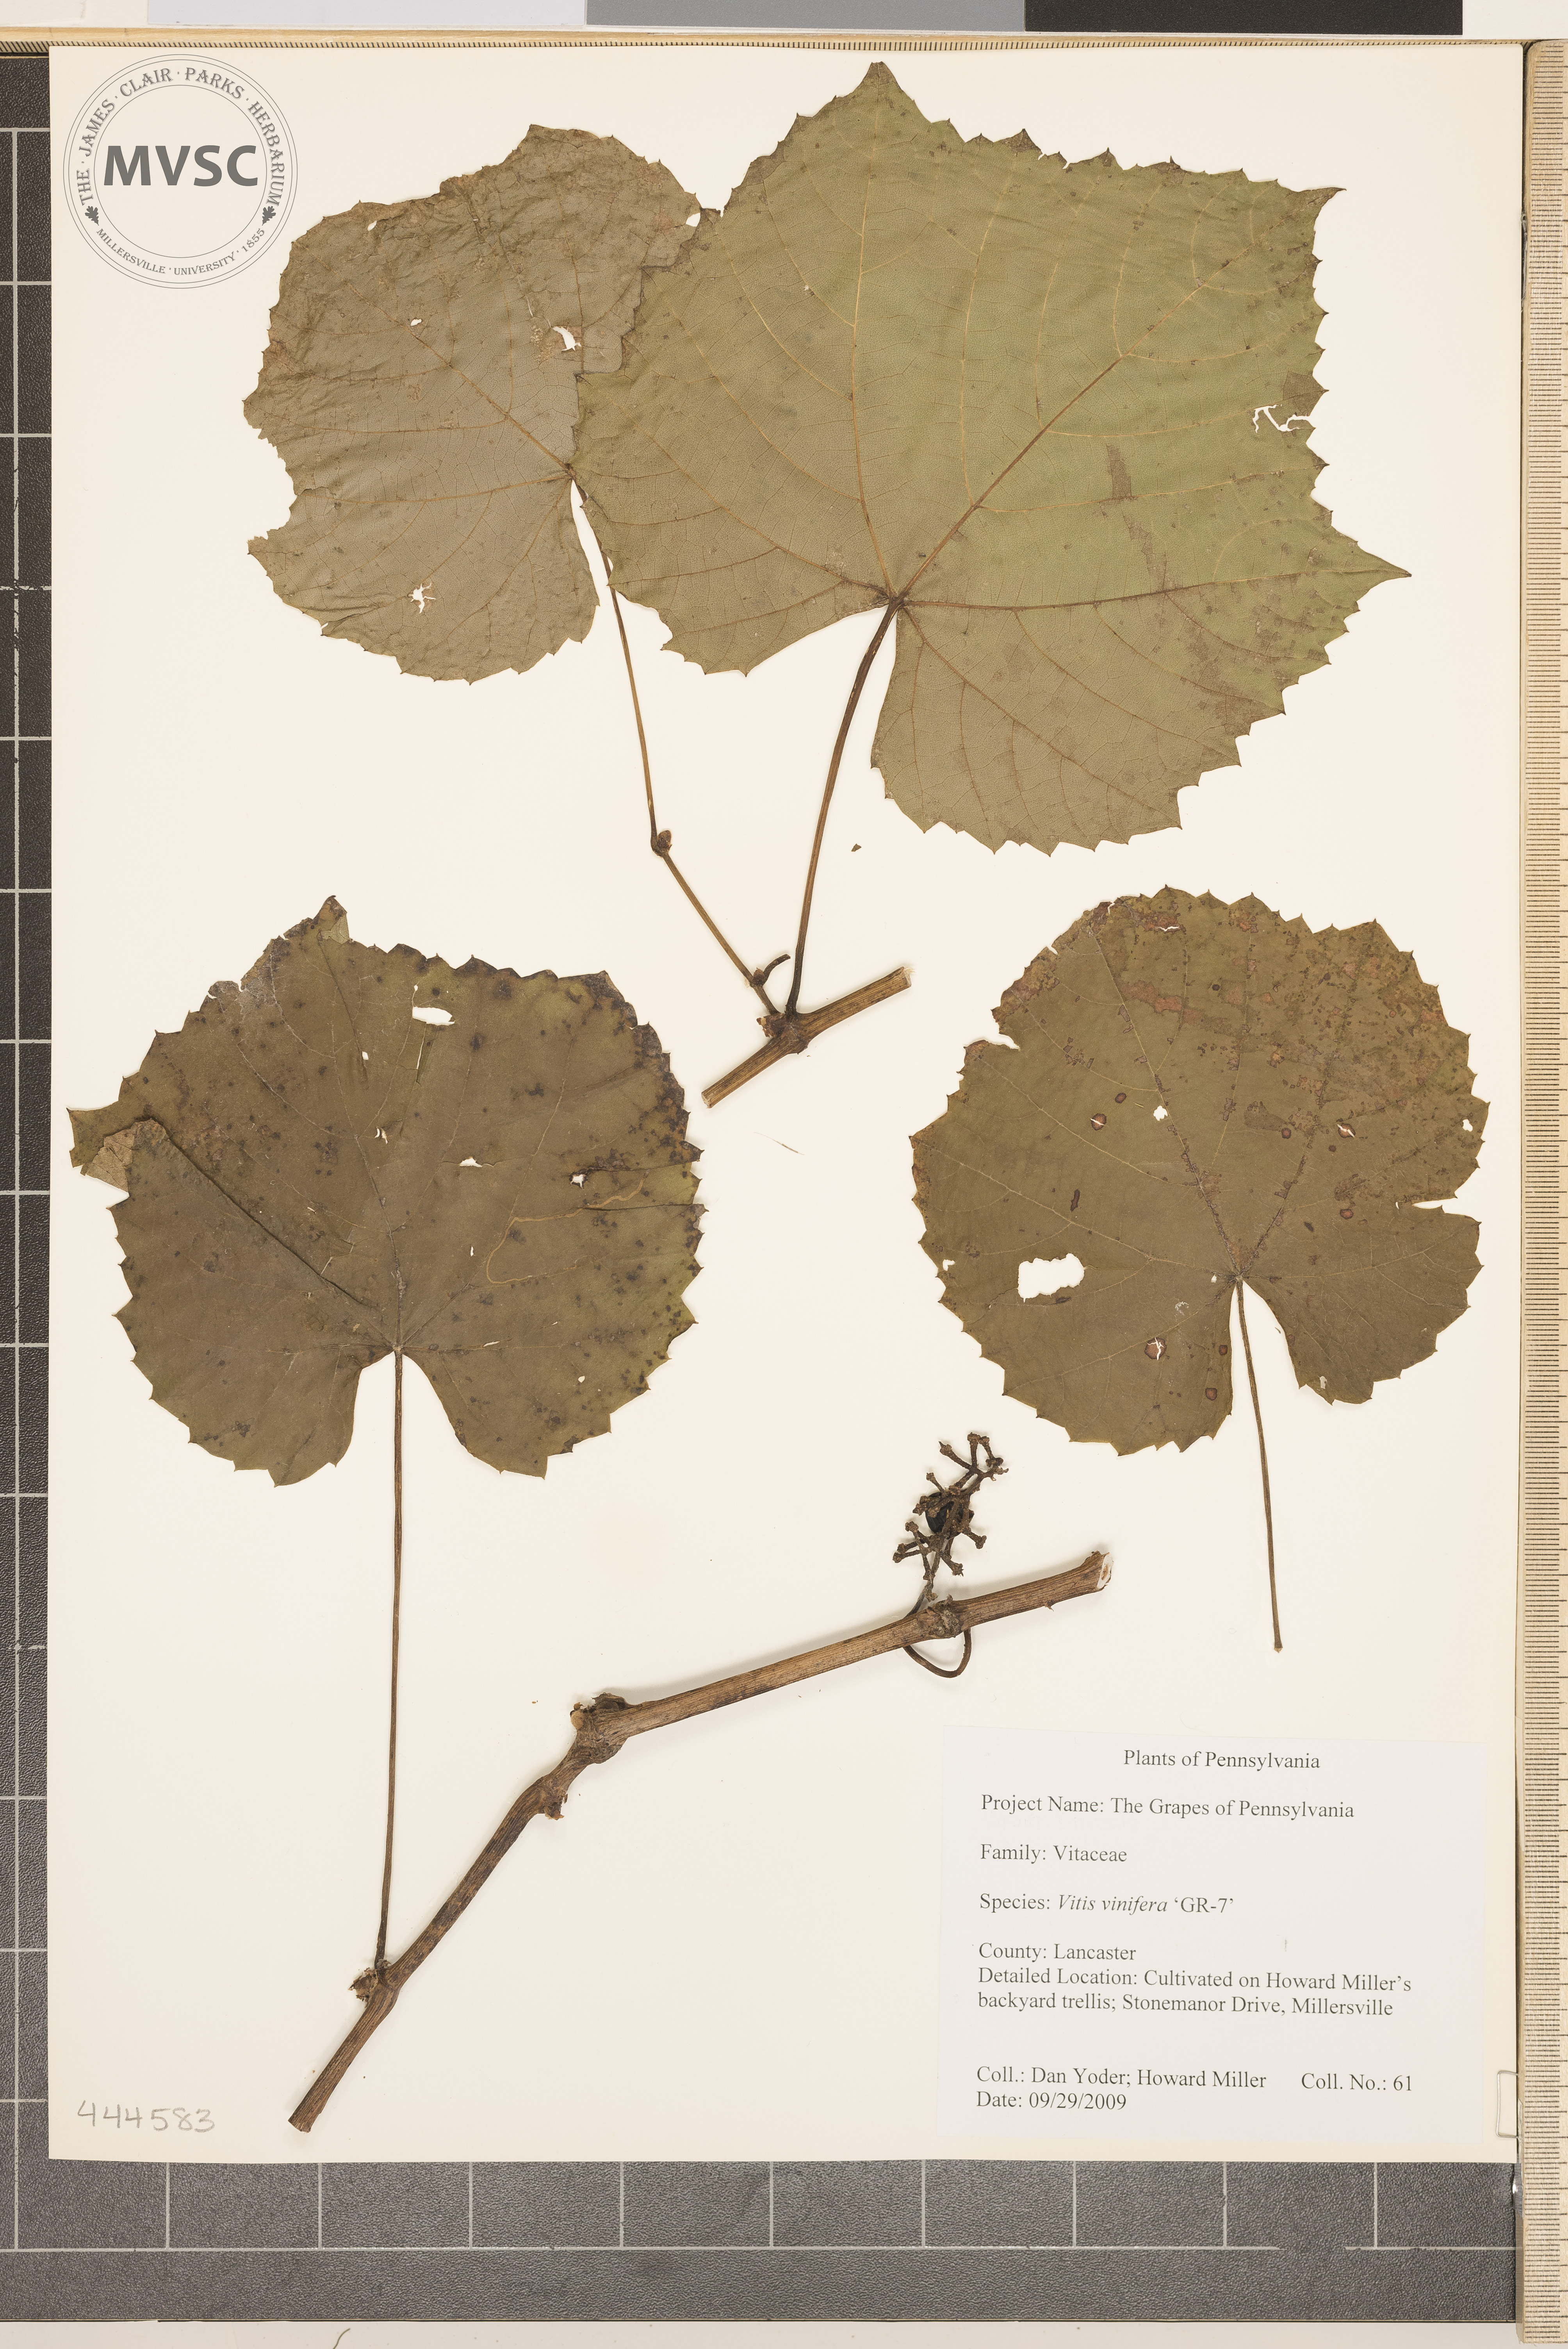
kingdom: Plantae
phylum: Tracheophyta
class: Magnoliopsida
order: Vitales
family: Vitaceae
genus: Vitis
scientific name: Vitis vinifera
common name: Grape-vine
